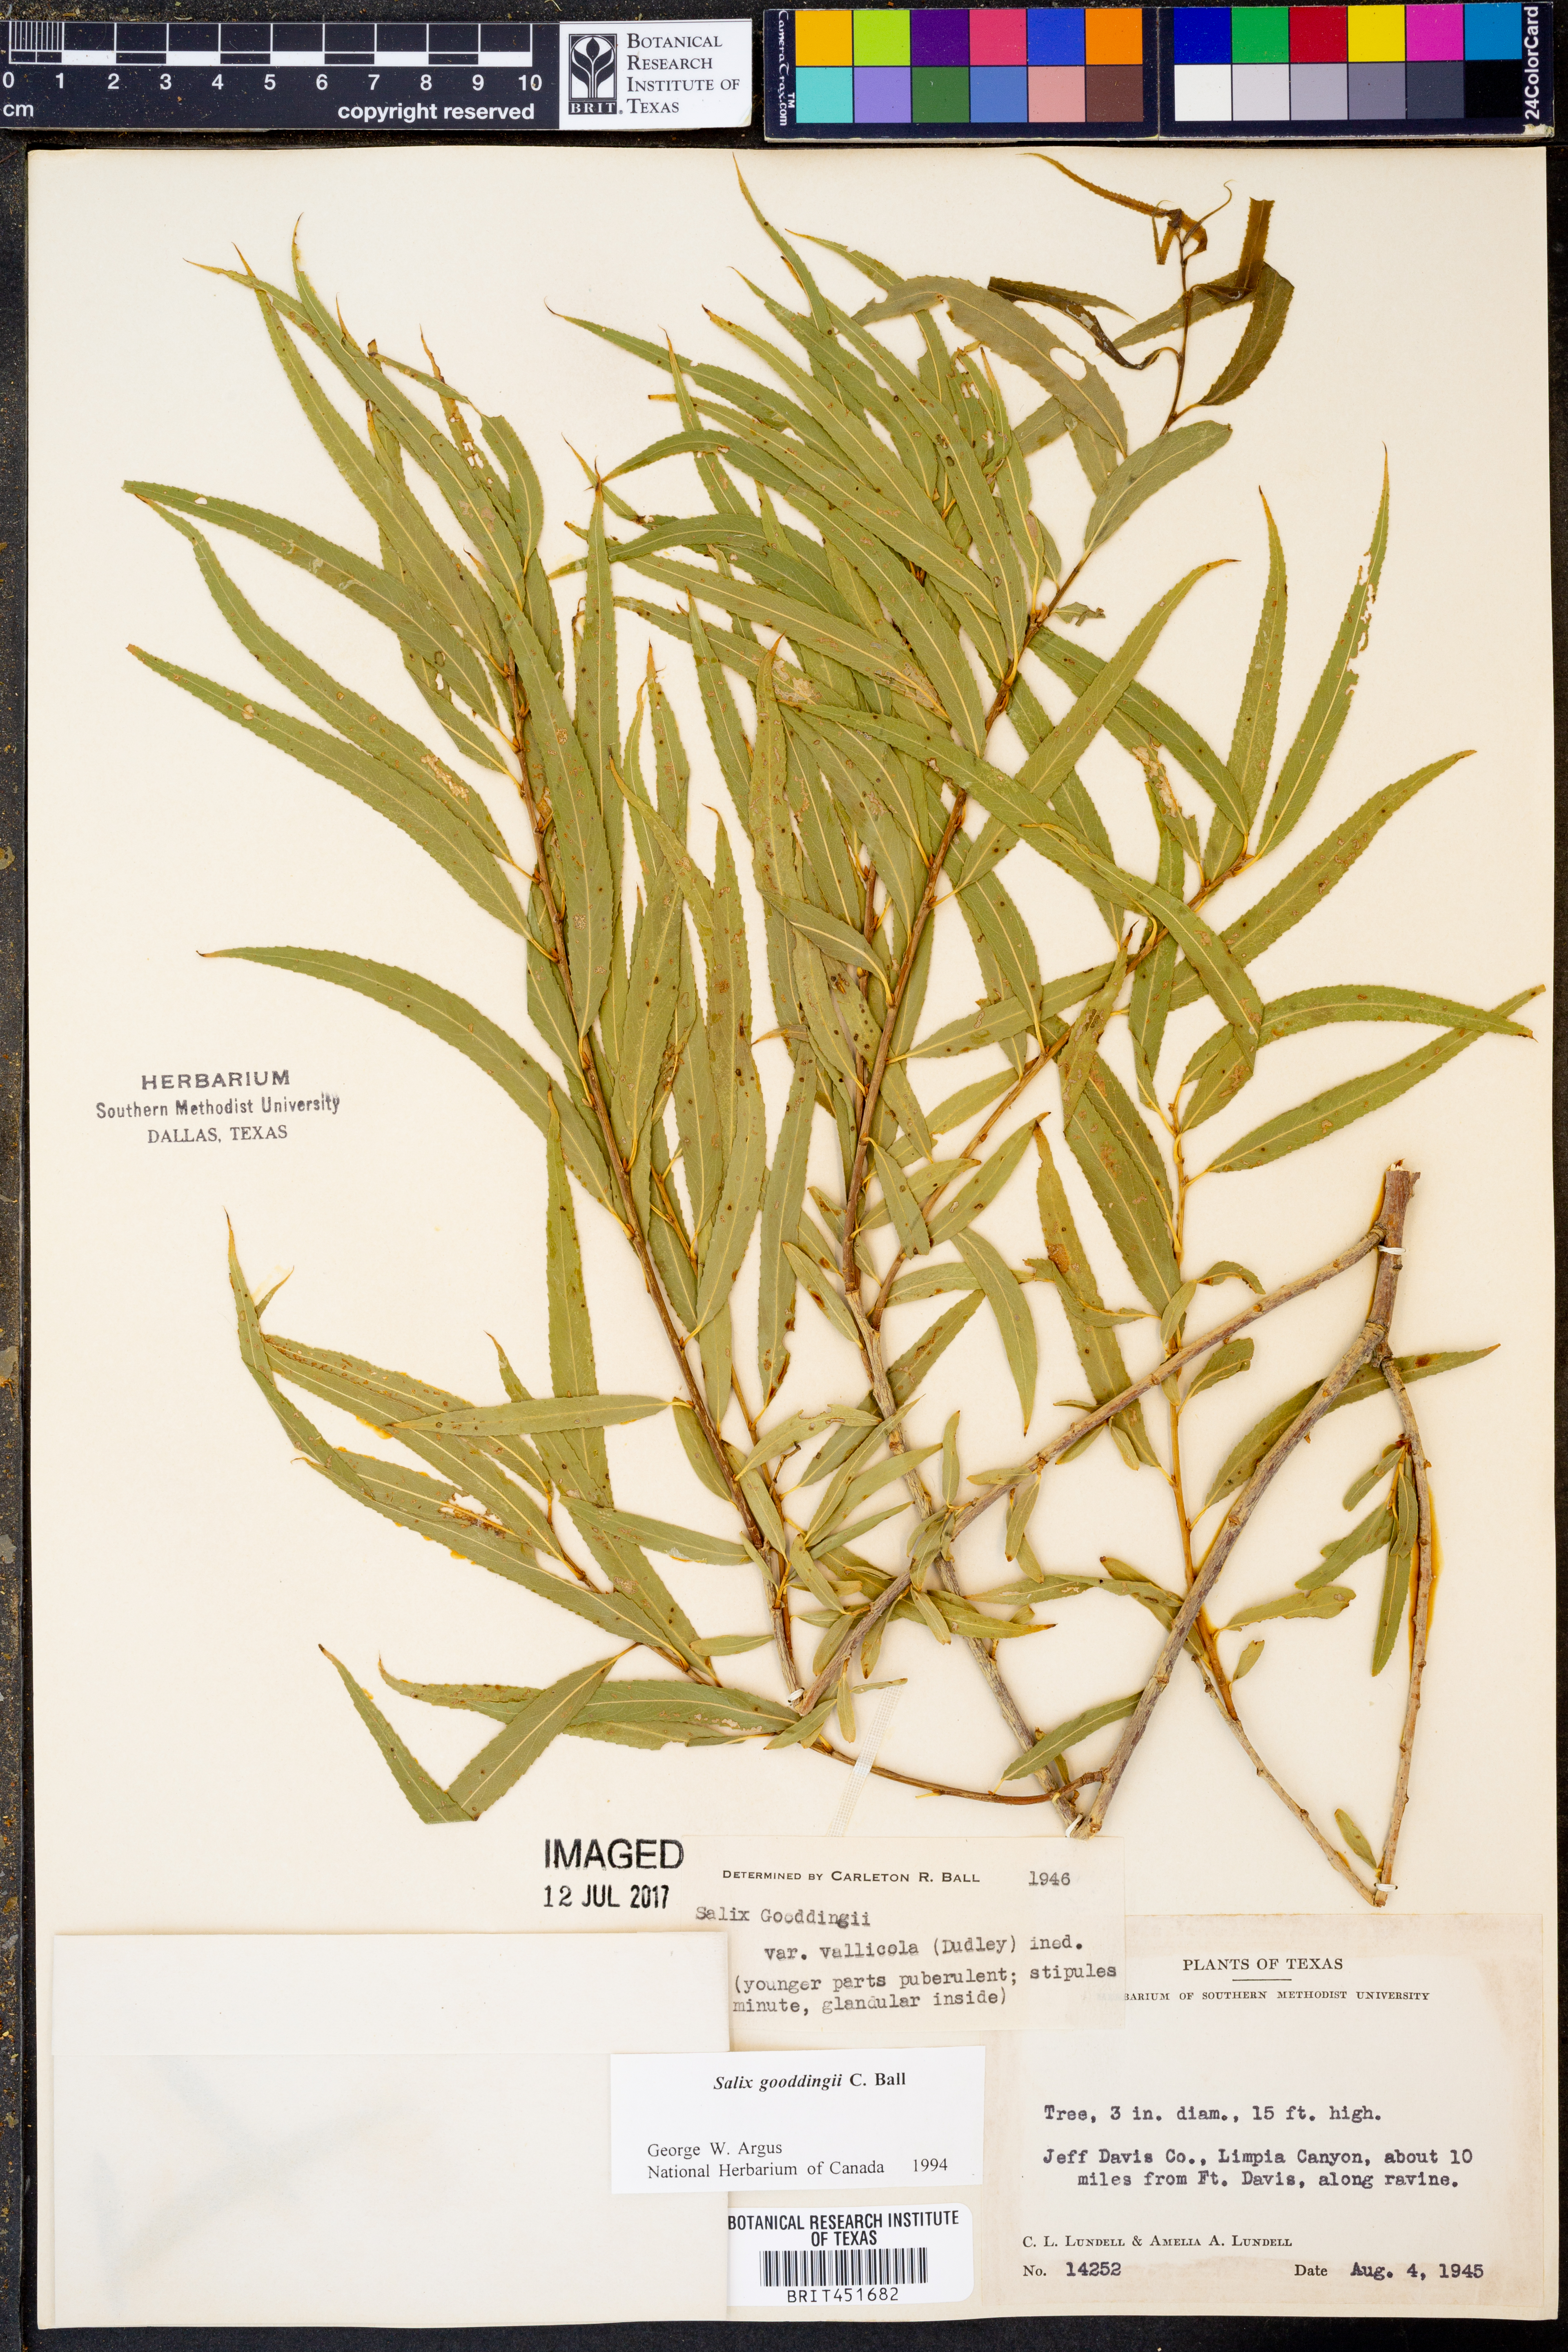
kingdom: Plantae
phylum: Tracheophyta
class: Magnoliopsida
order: Malpighiales
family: Salicaceae
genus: Salix
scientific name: Salix gooddingii
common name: Goodding's willow
